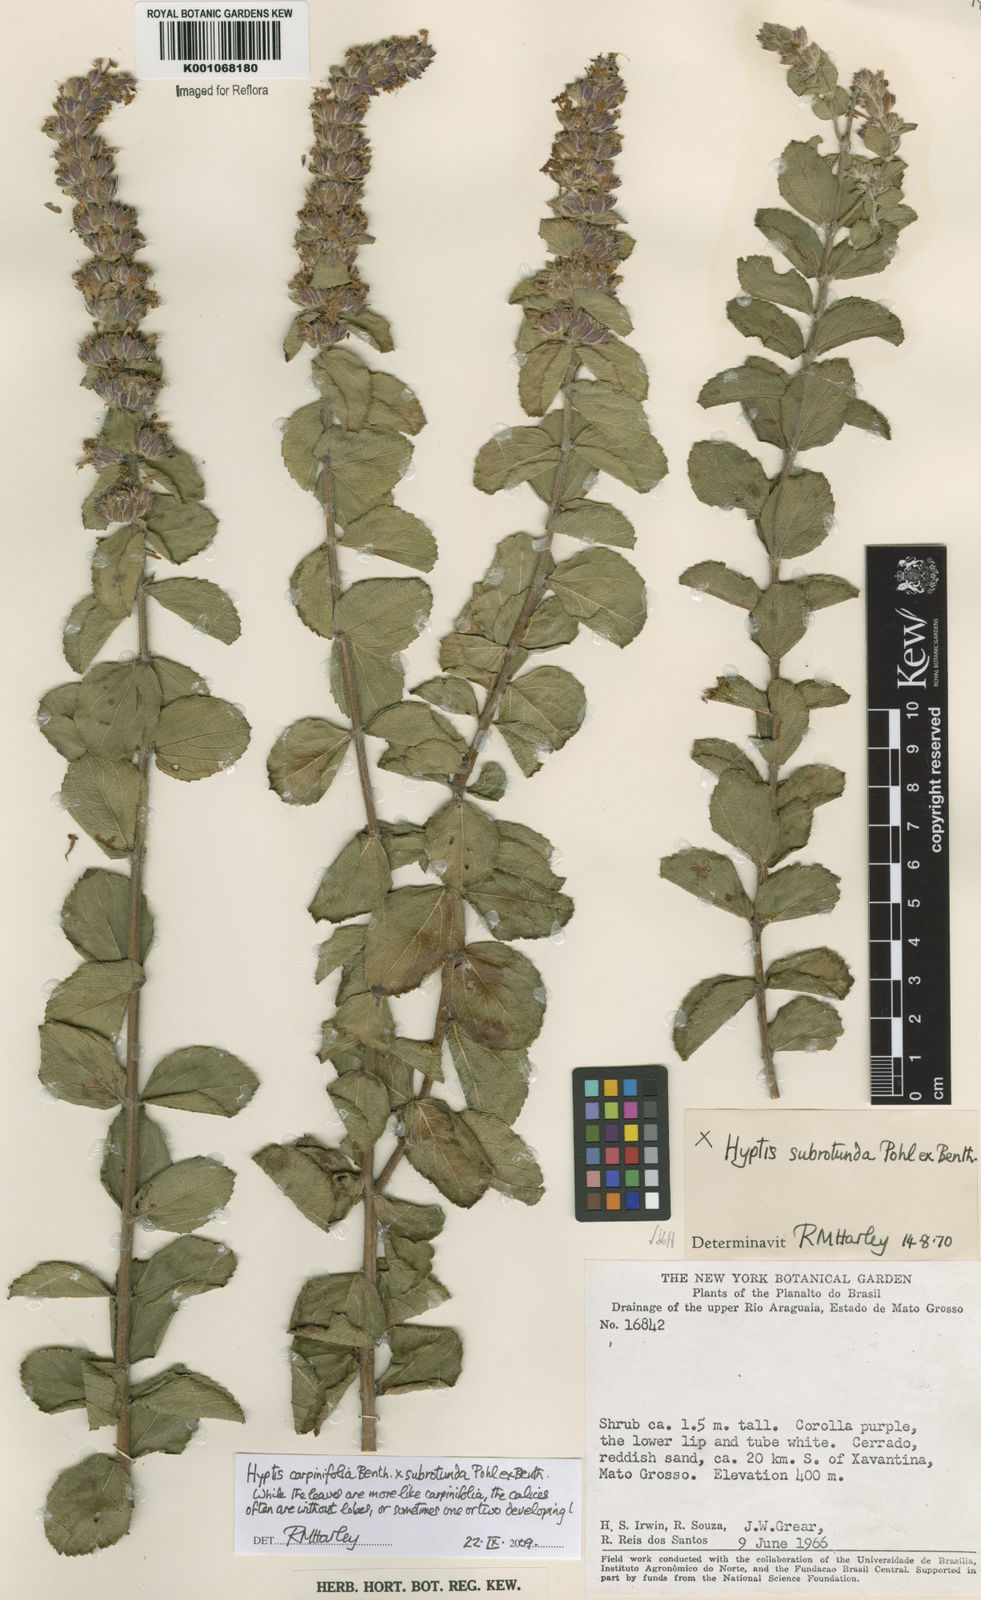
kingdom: Plantae
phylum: Tracheophyta
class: Magnoliopsida
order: Lamiales
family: Lamiaceae
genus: Cantinoa
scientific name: Cantinoa
